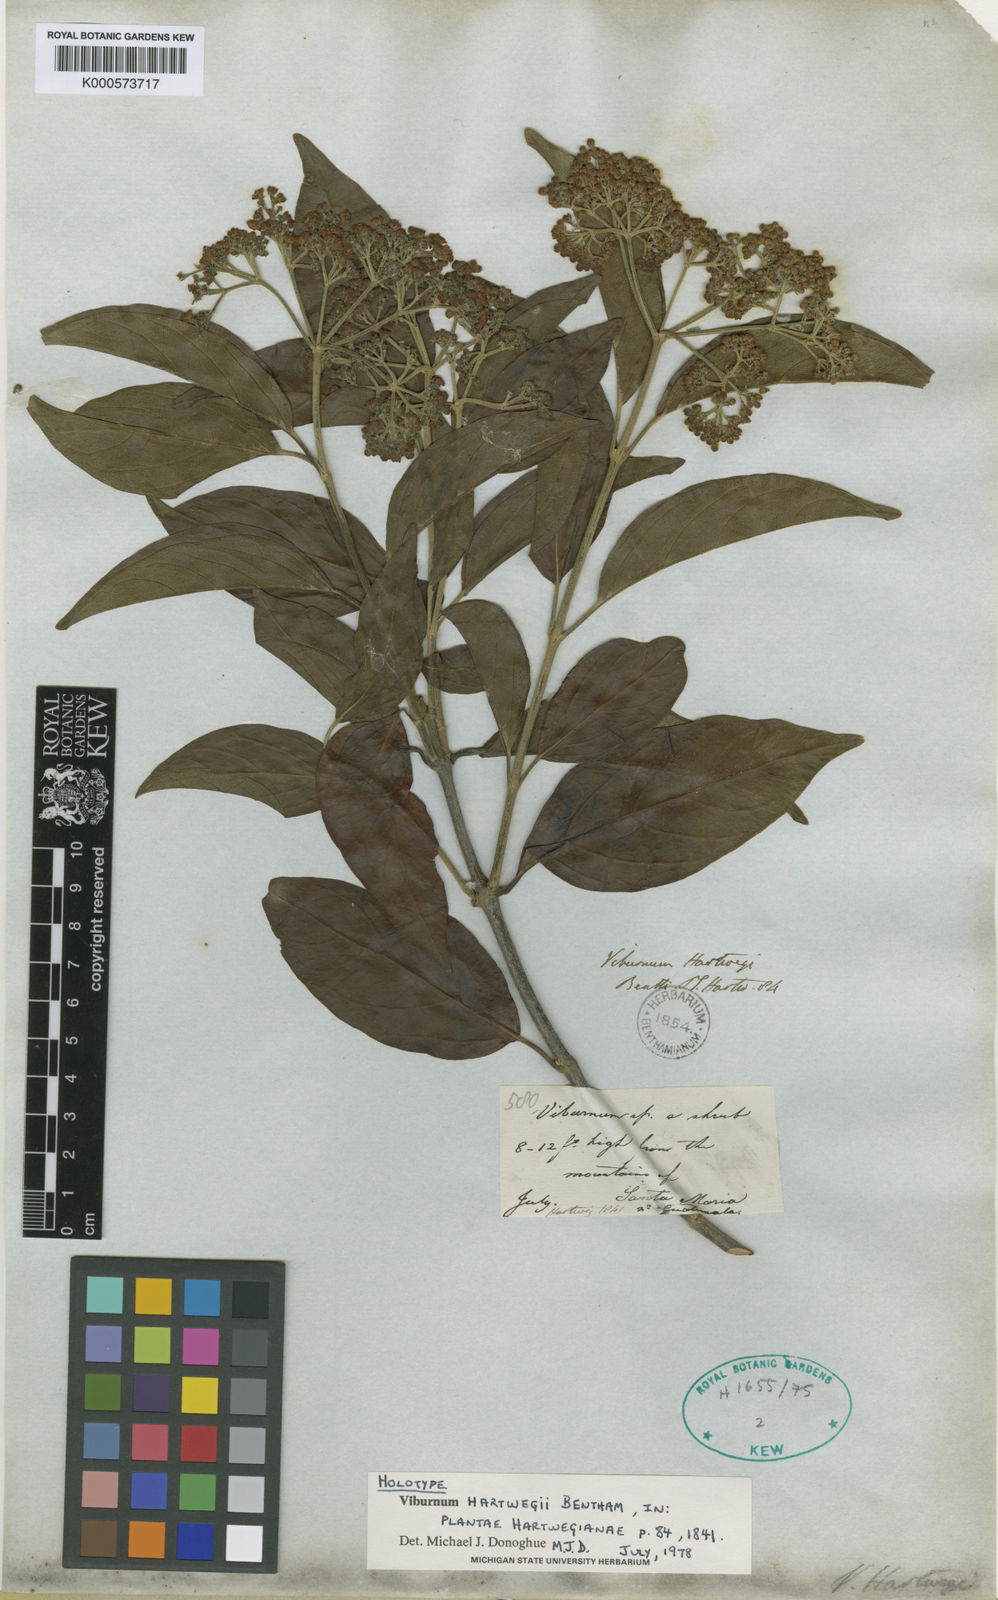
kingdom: Plantae
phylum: Tracheophyta
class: Magnoliopsida
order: Dipsacales
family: Viburnaceae
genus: Viburnum
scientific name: Viburnum hartwegii
